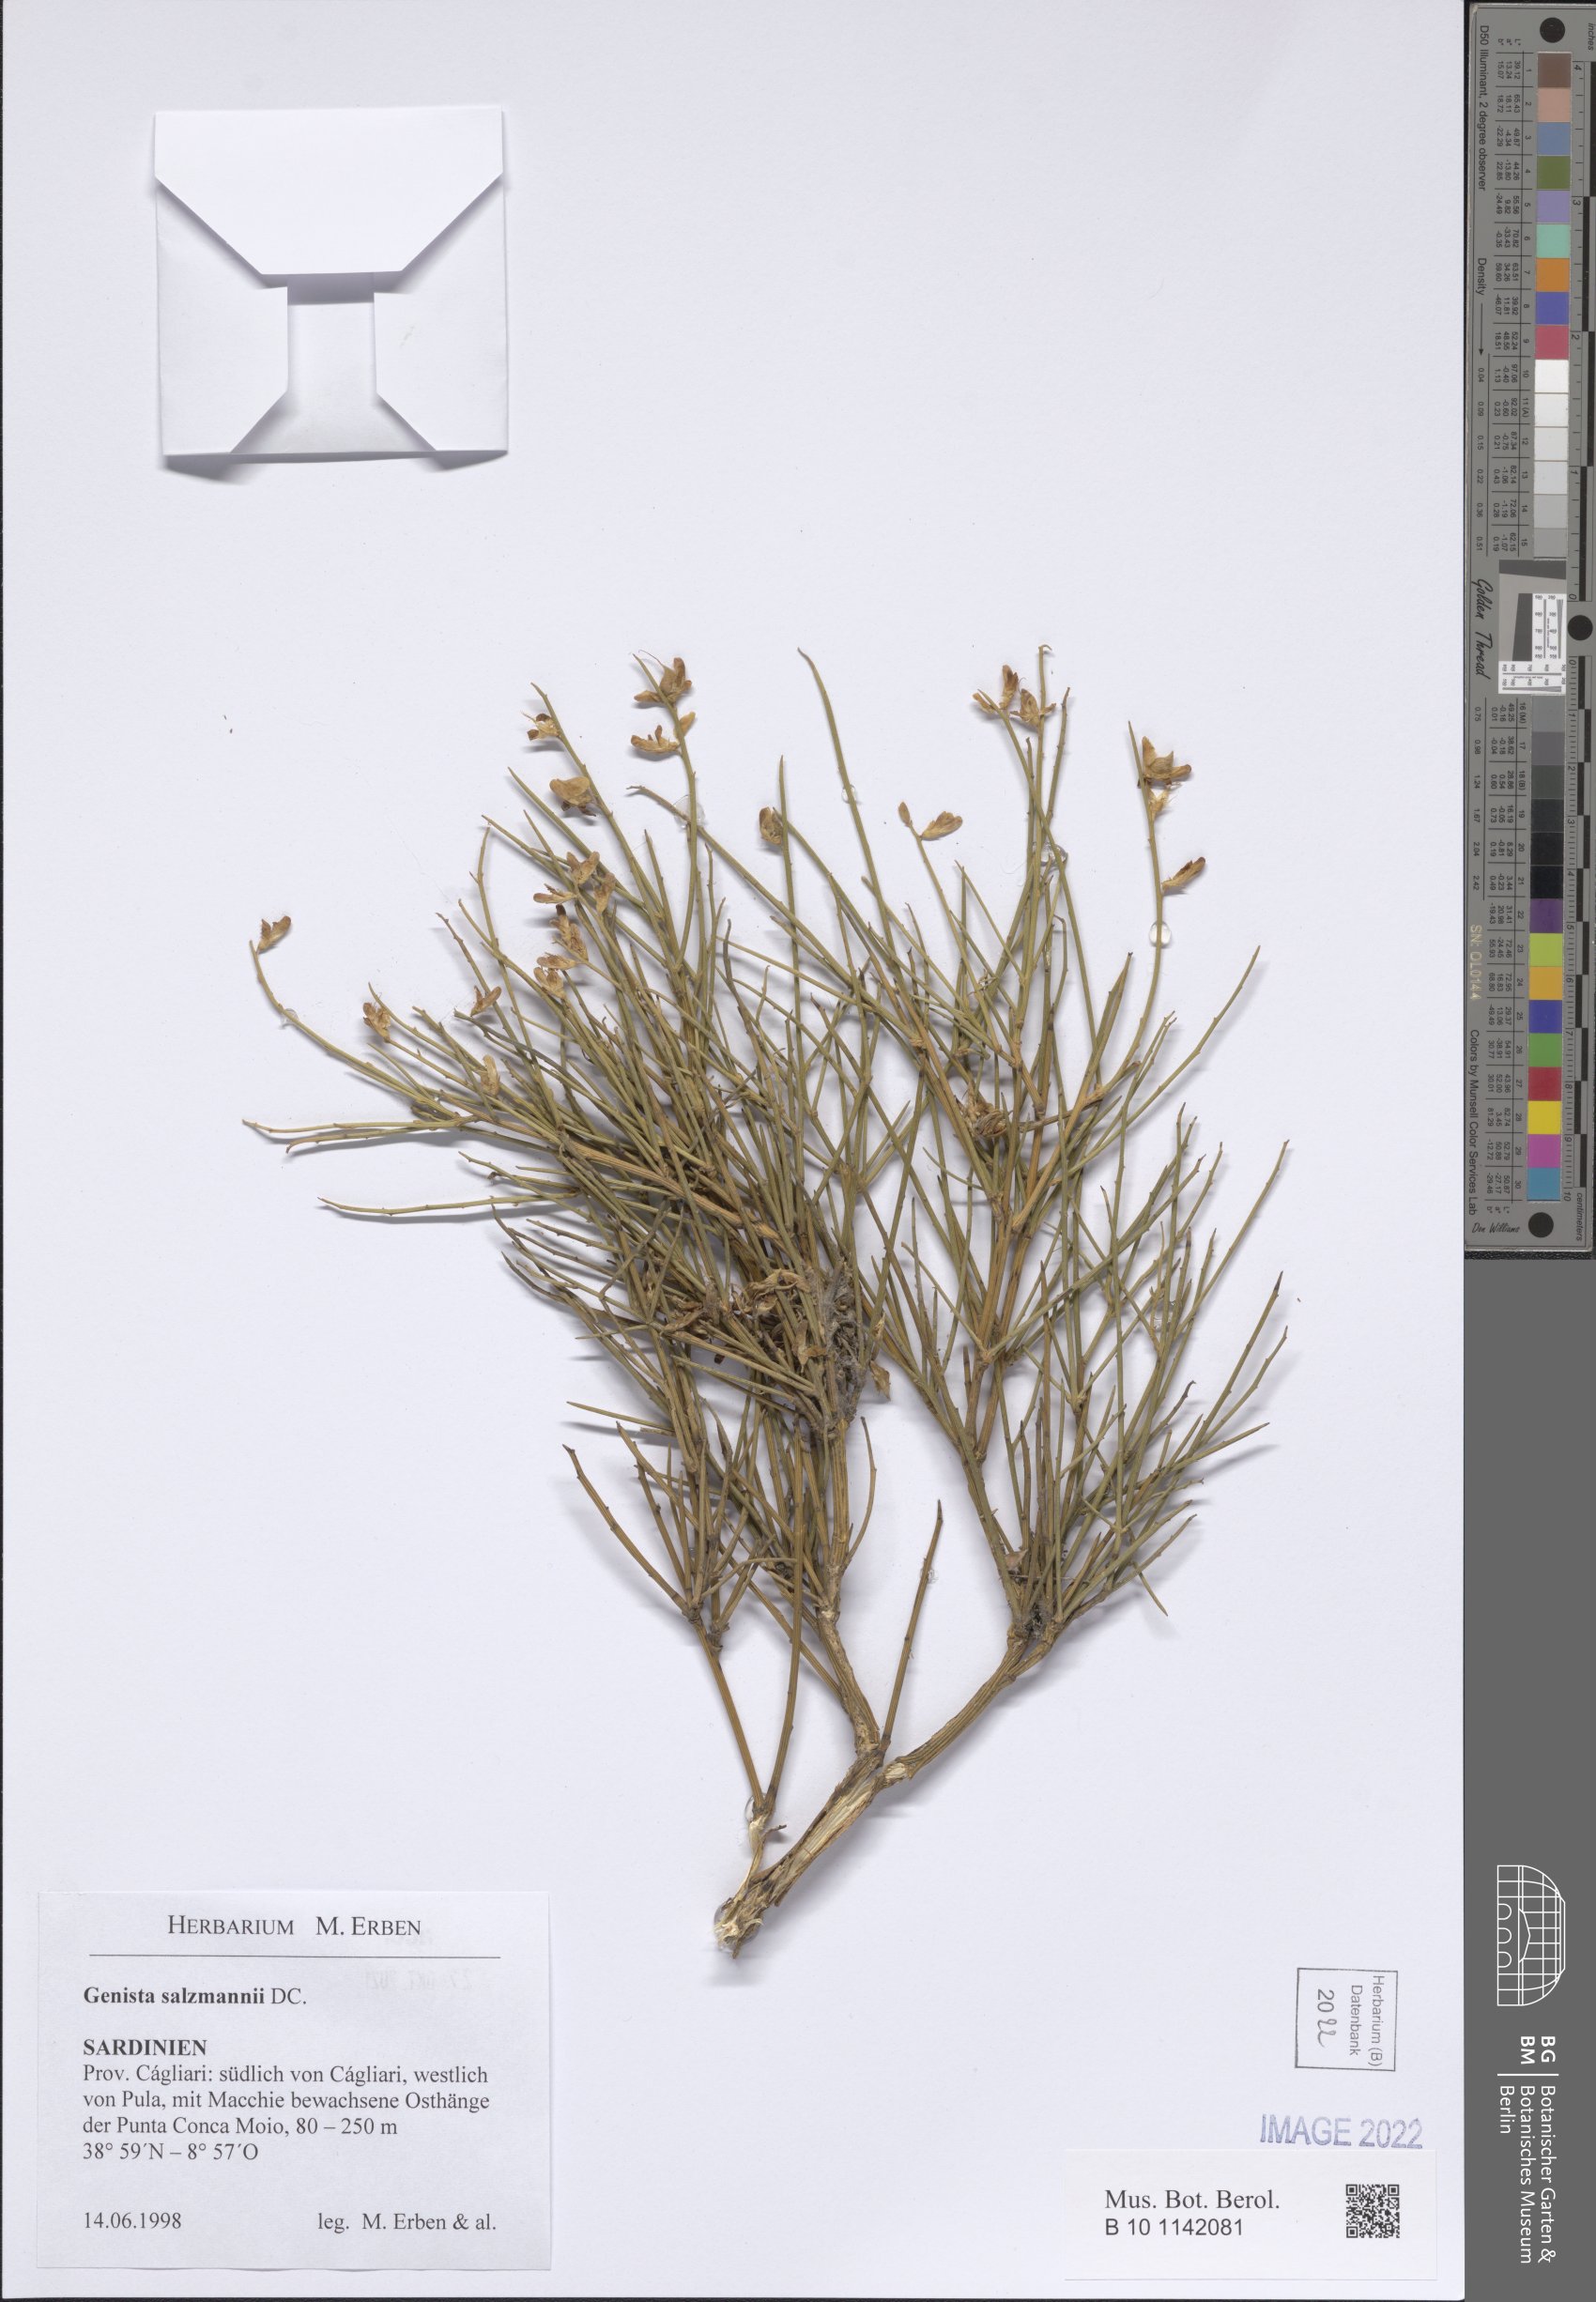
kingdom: Plantae
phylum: Tracheophyta
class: Magnoliopsida
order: Fabales
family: Fabaceae
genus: Genista
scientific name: Genista salzmannii
